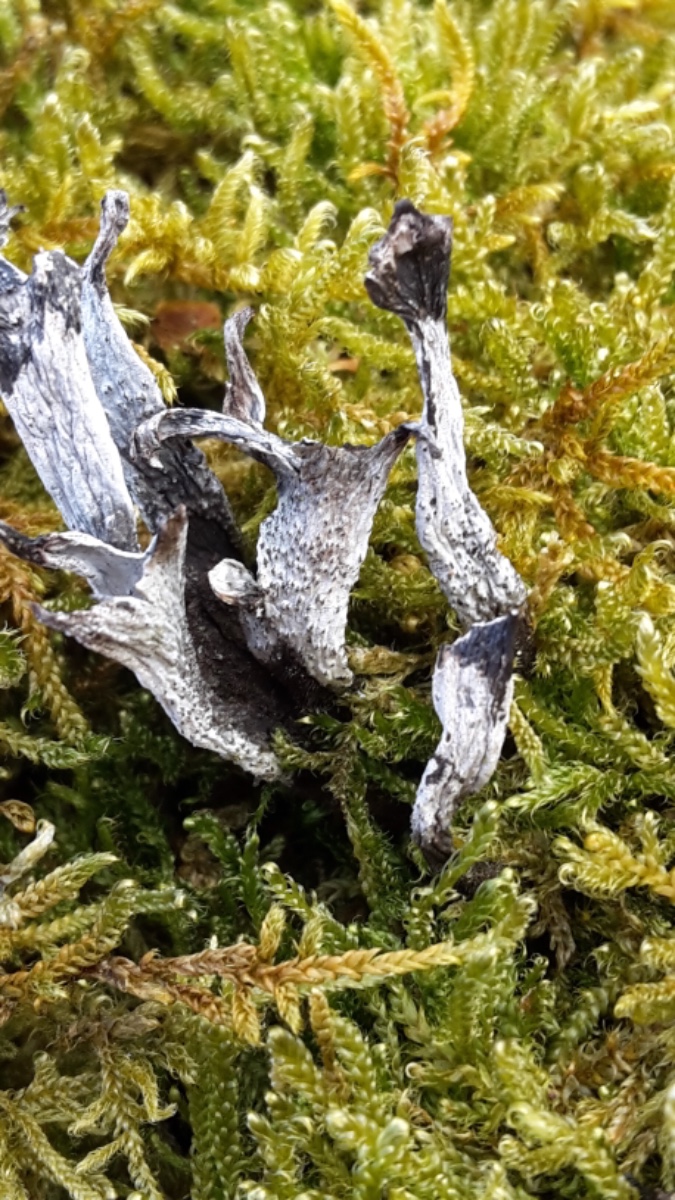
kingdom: Fungi
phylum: Ascomycota
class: Sordariomycetes
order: Xylariales
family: Xylariaceae
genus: Xylaria
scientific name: Xylaria hypoxylon
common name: grenet stødsvamp
